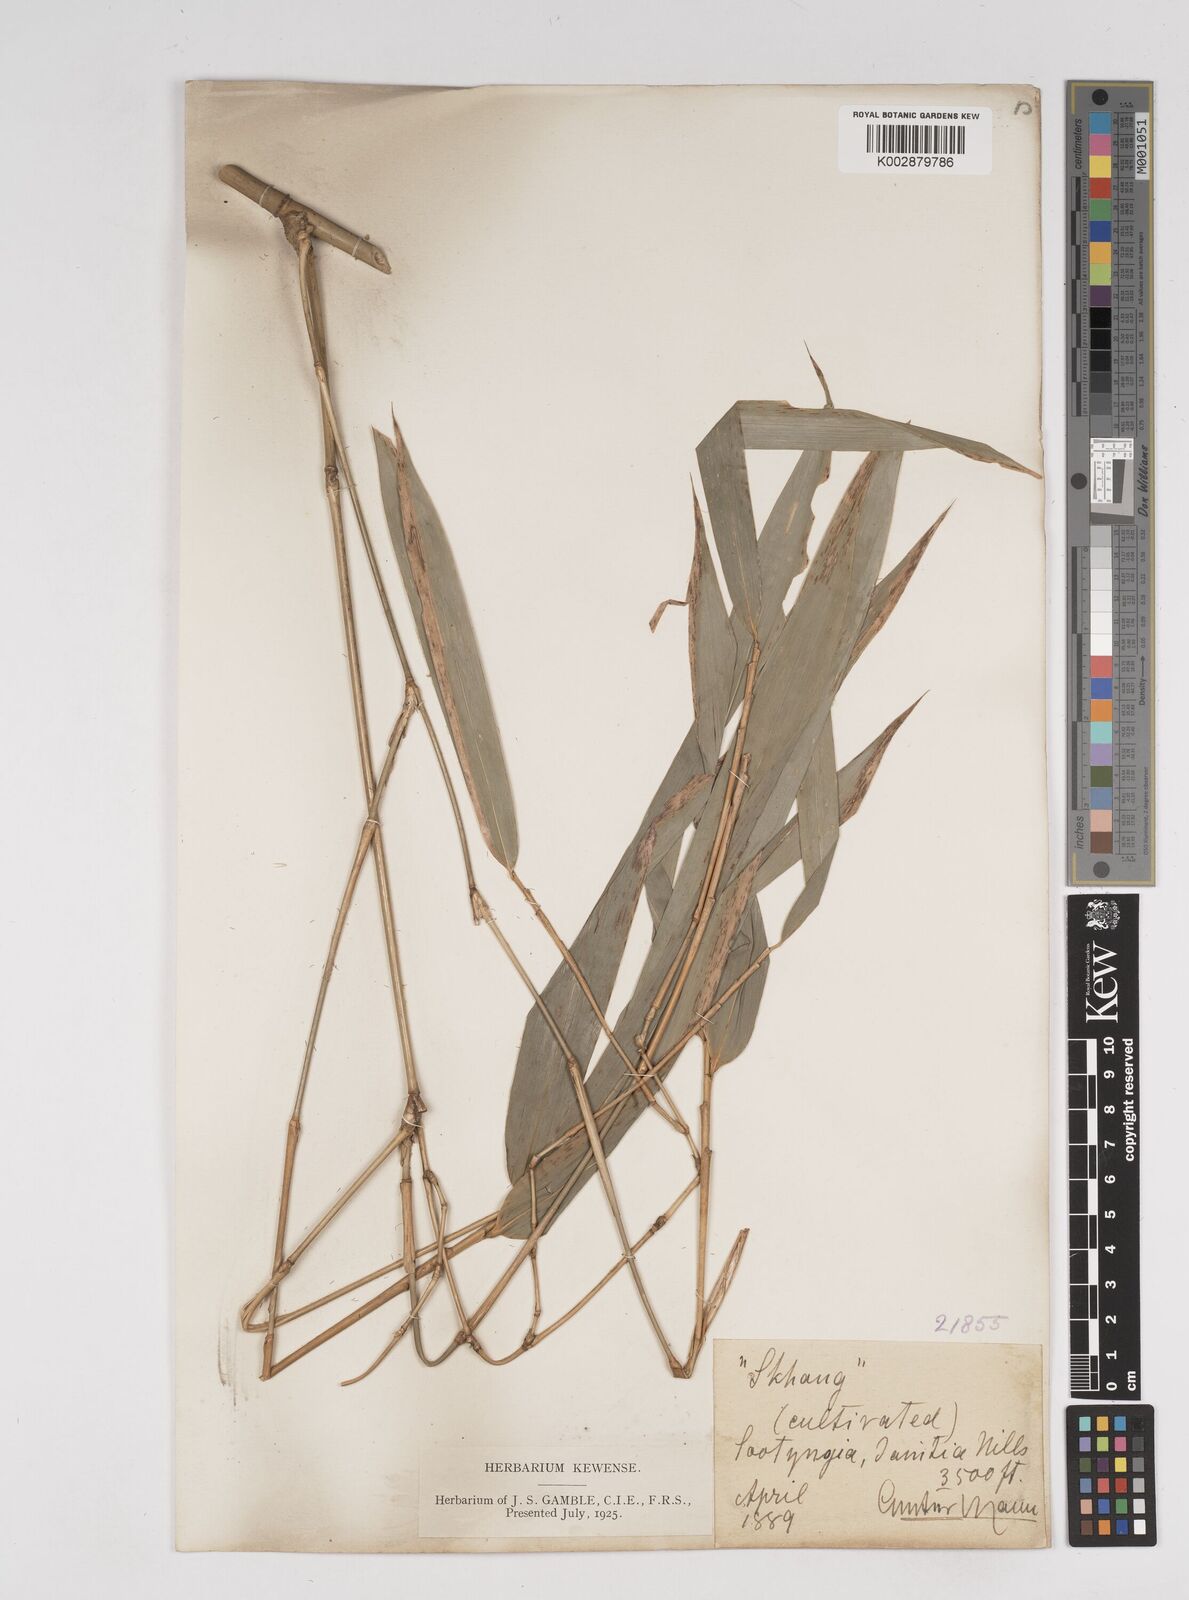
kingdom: Plantae
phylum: Tracheophyta
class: Liliopsida
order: Poales
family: Poaceae
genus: Gigantochloa
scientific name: Gigantochloa macrostachya
